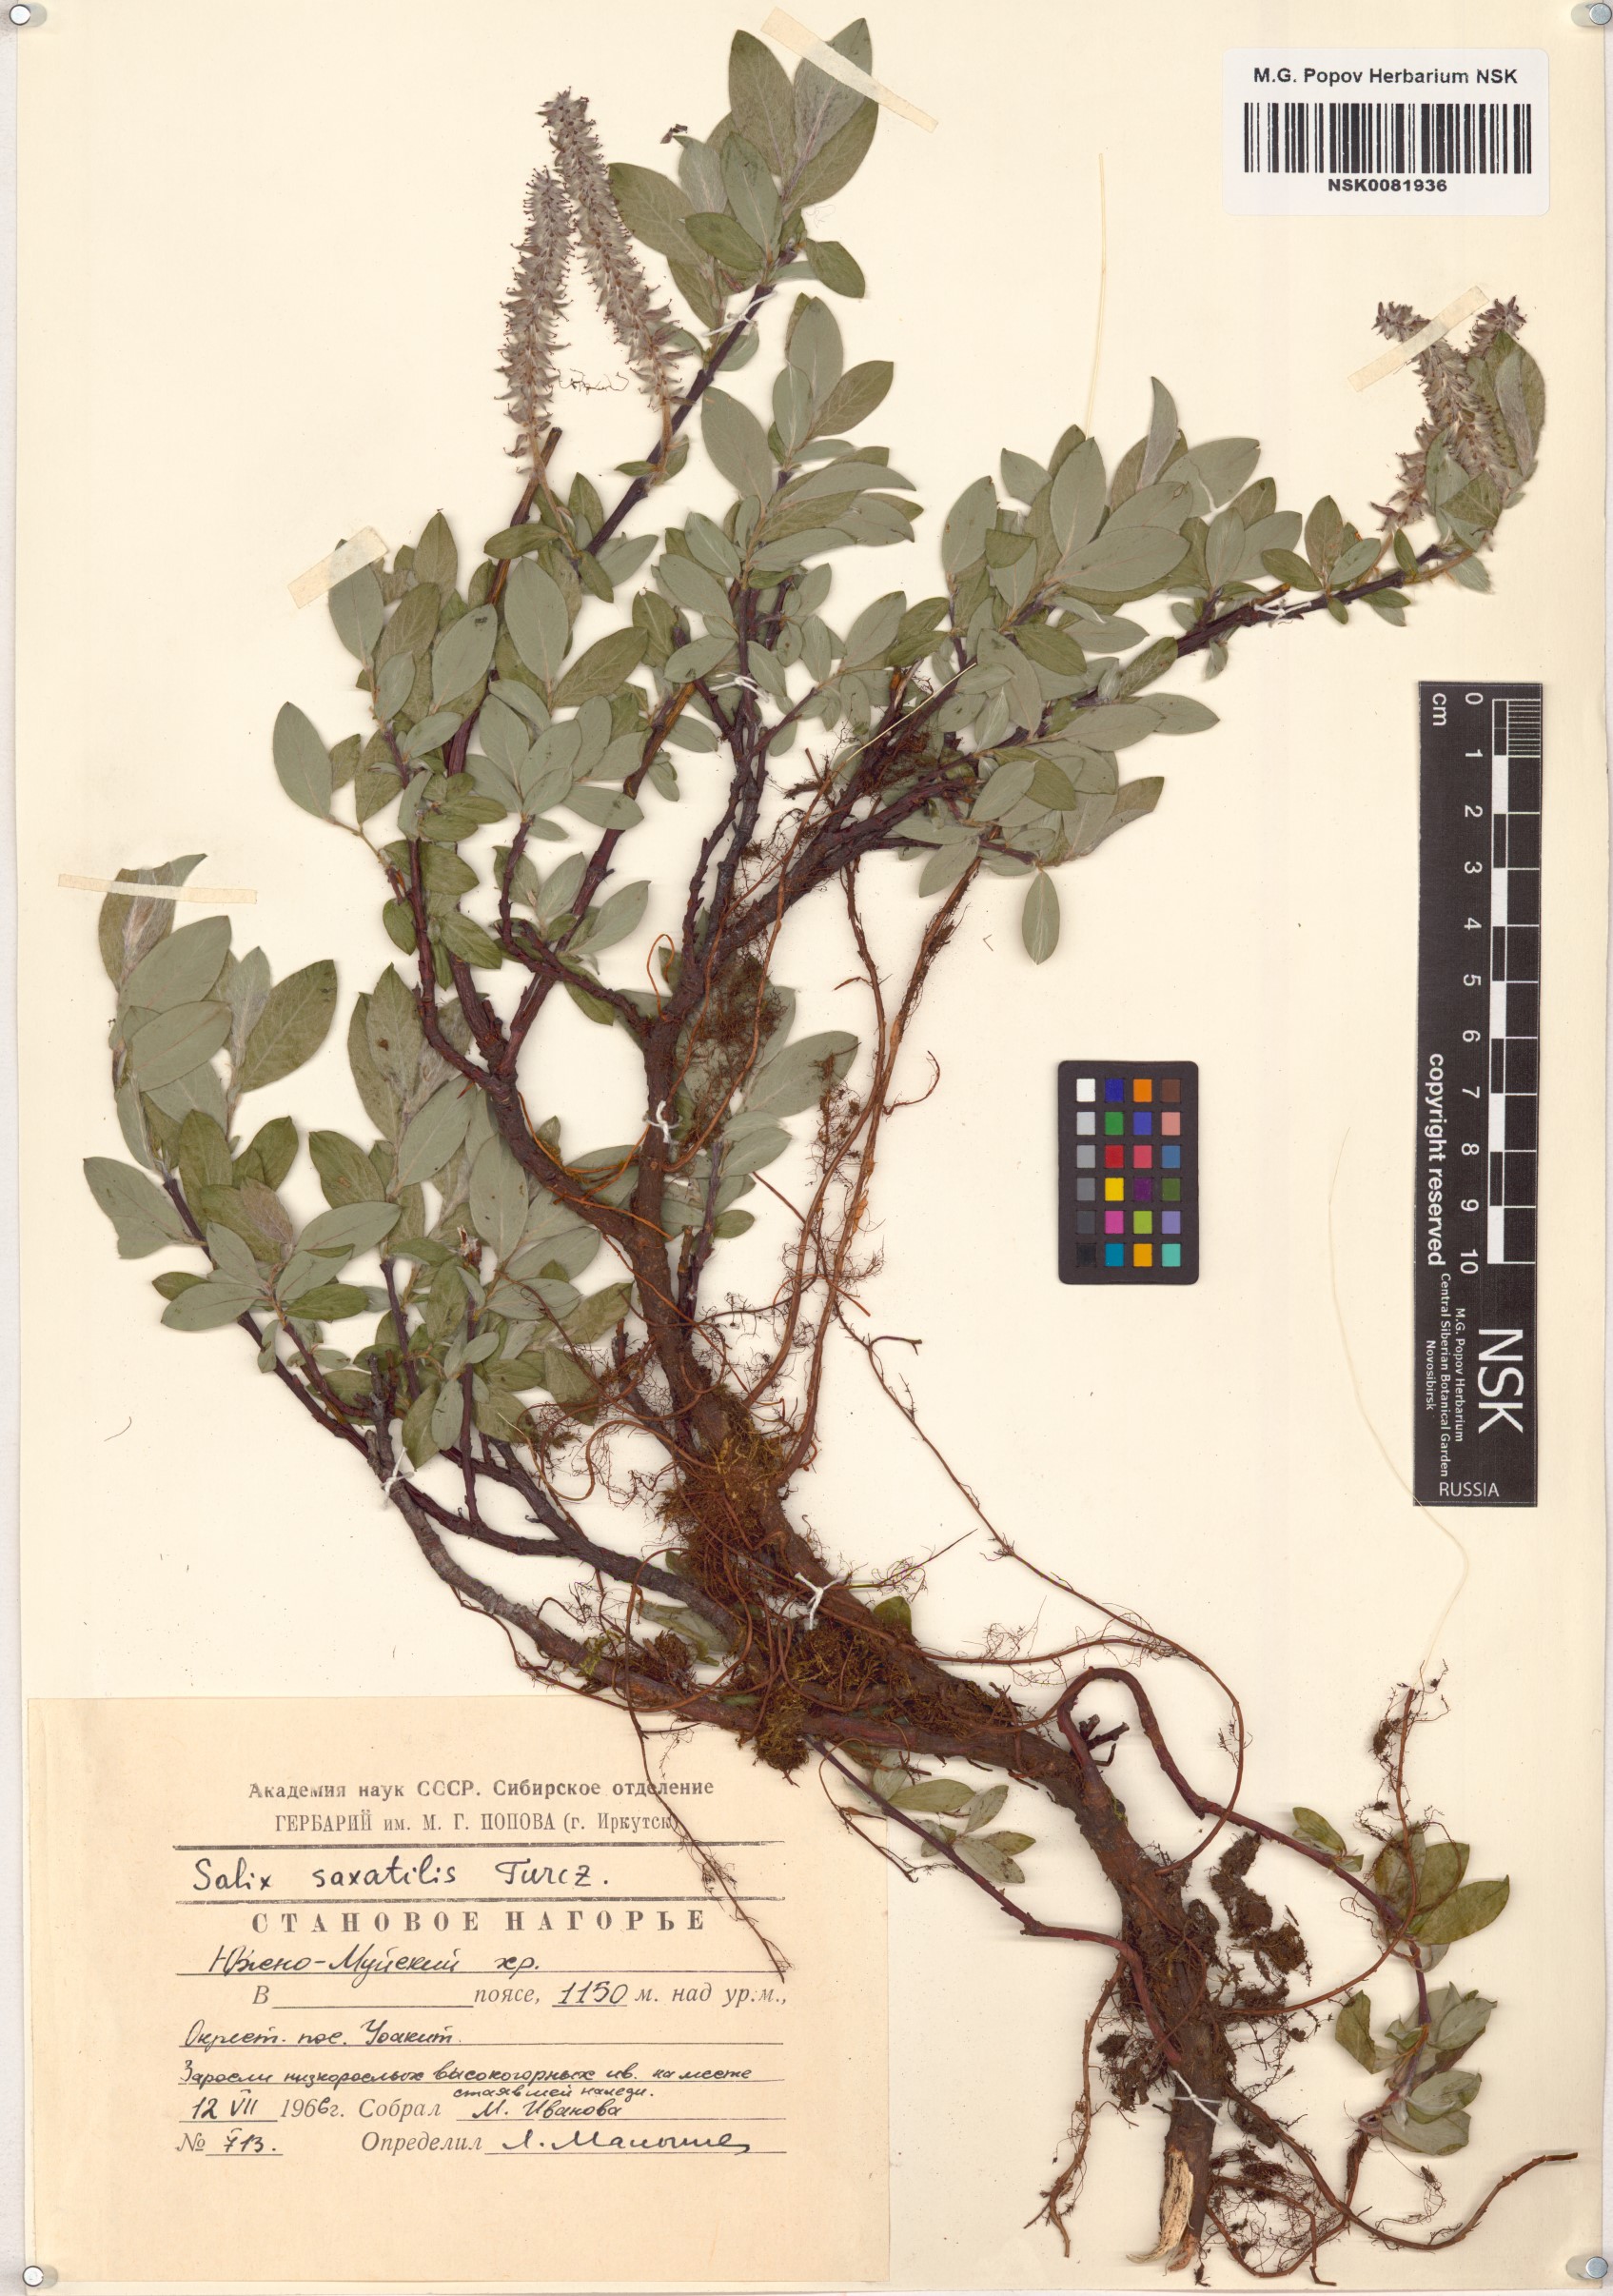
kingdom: Plantae
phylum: Tracheophyta
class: Magnoliopsida
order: Malpighiales
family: Salicaceae
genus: Salix
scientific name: Salix saxatilis
